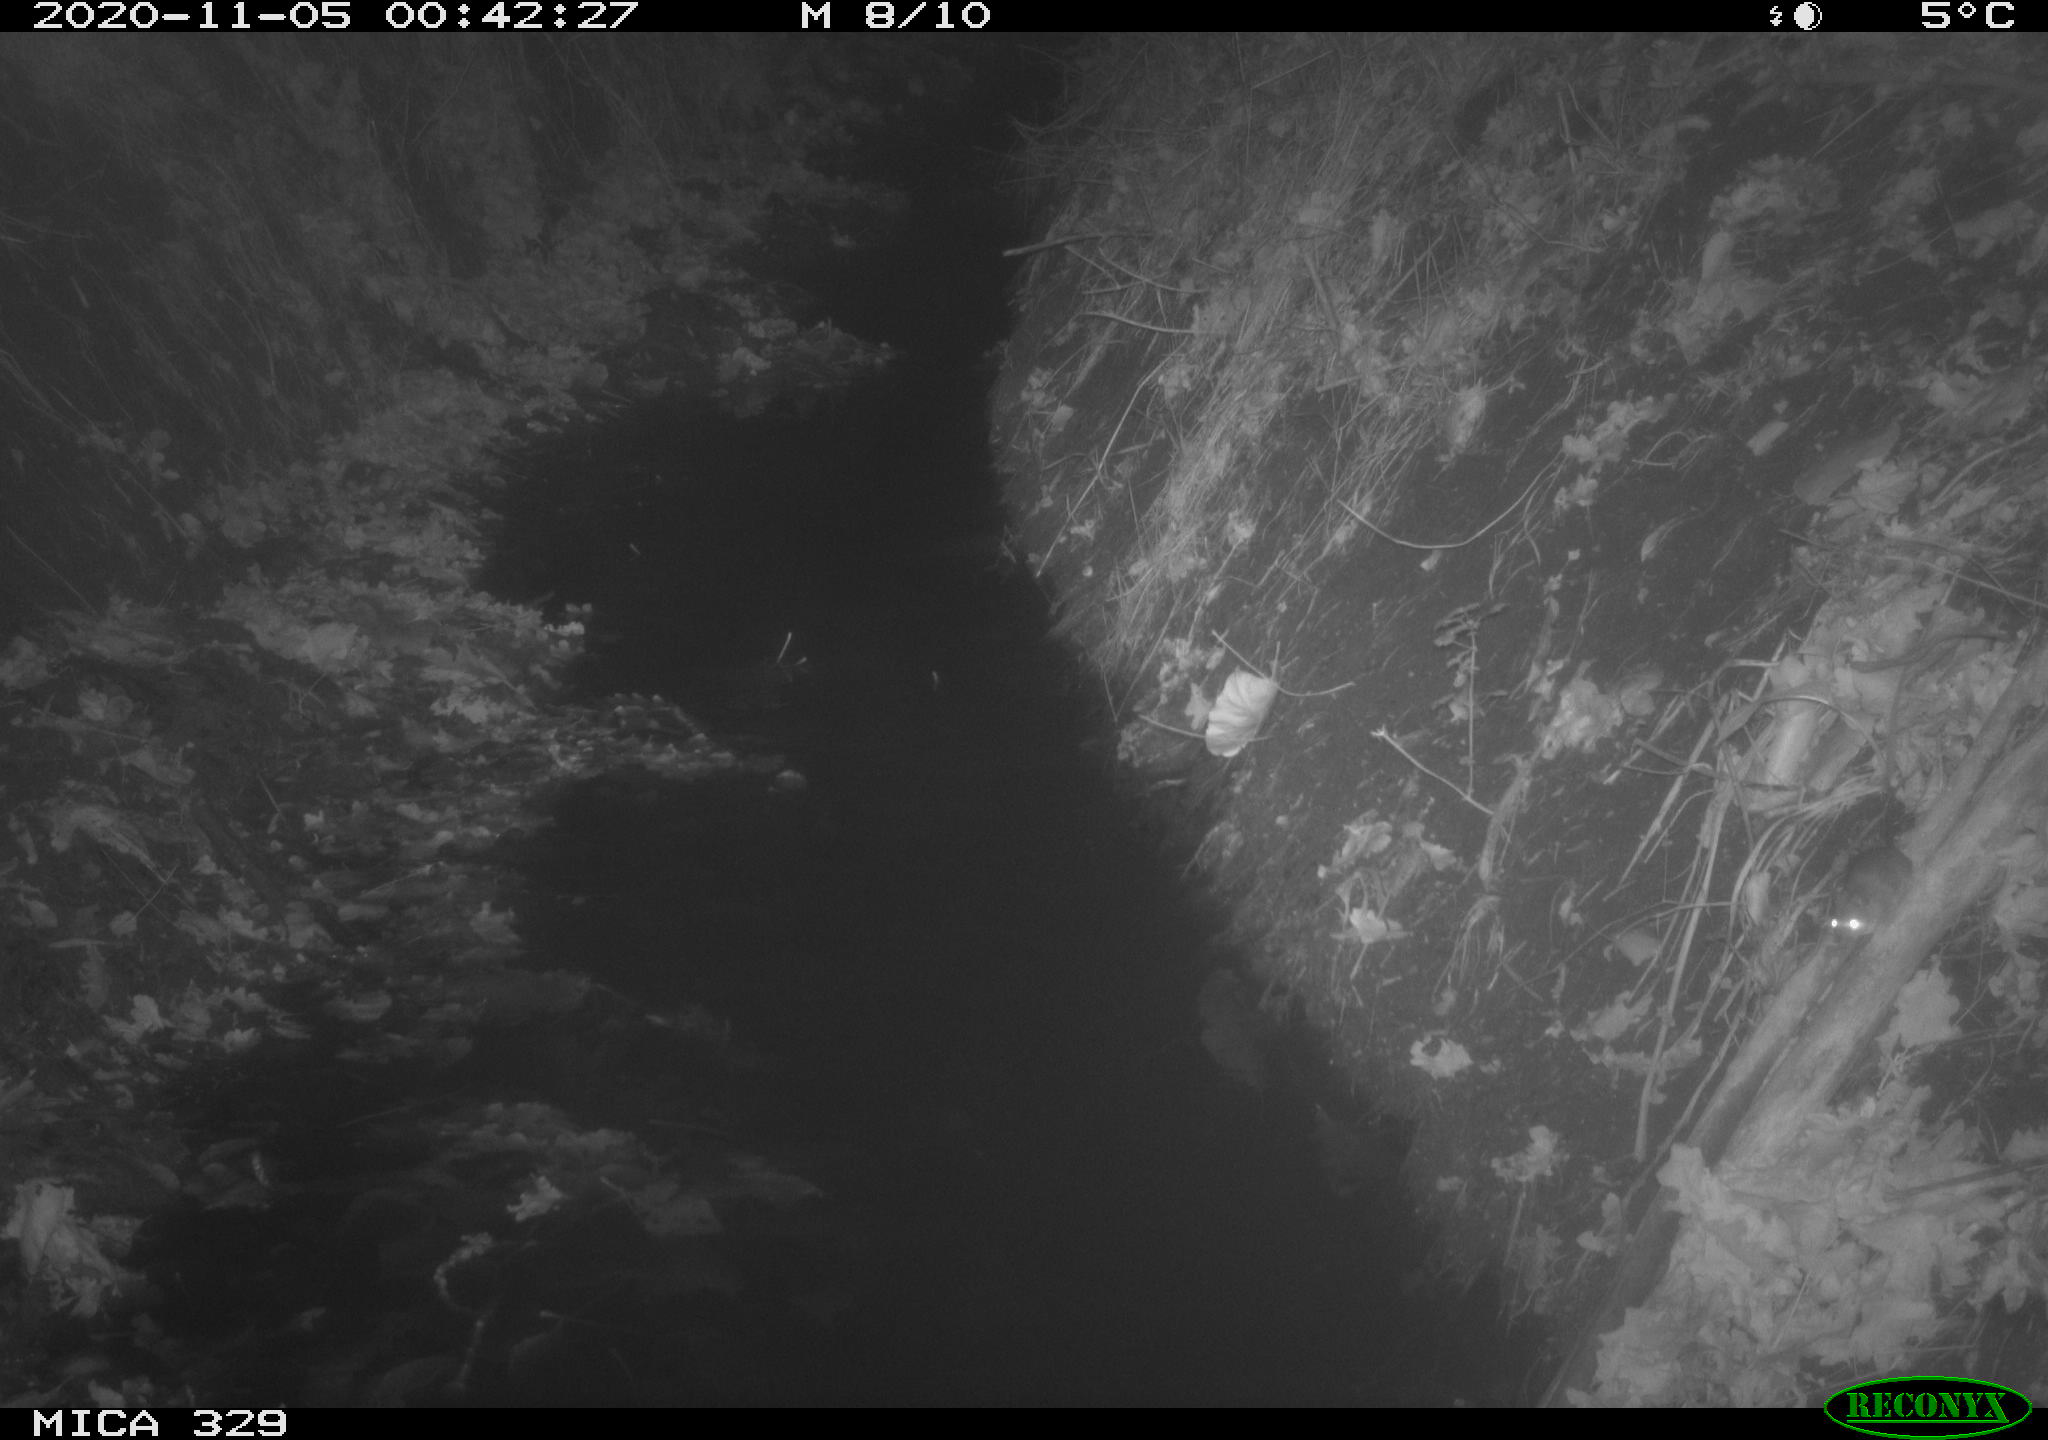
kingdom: Animalia
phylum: Chordata
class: Mammalia
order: Rodentia
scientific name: Rodentia
